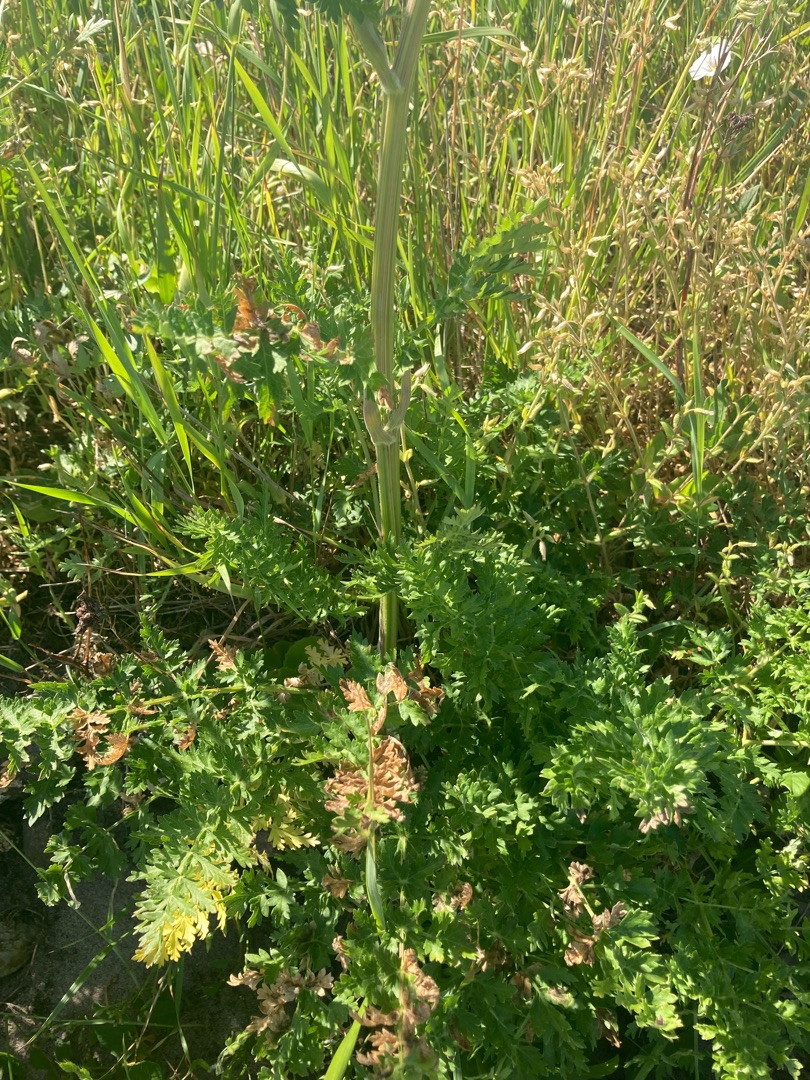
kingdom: Plantae
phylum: Tracheophyta
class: Magnoliopsida
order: Apiales
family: Apiaceae
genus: Seseli
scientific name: Seseli libanotis
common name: Hjorterod
